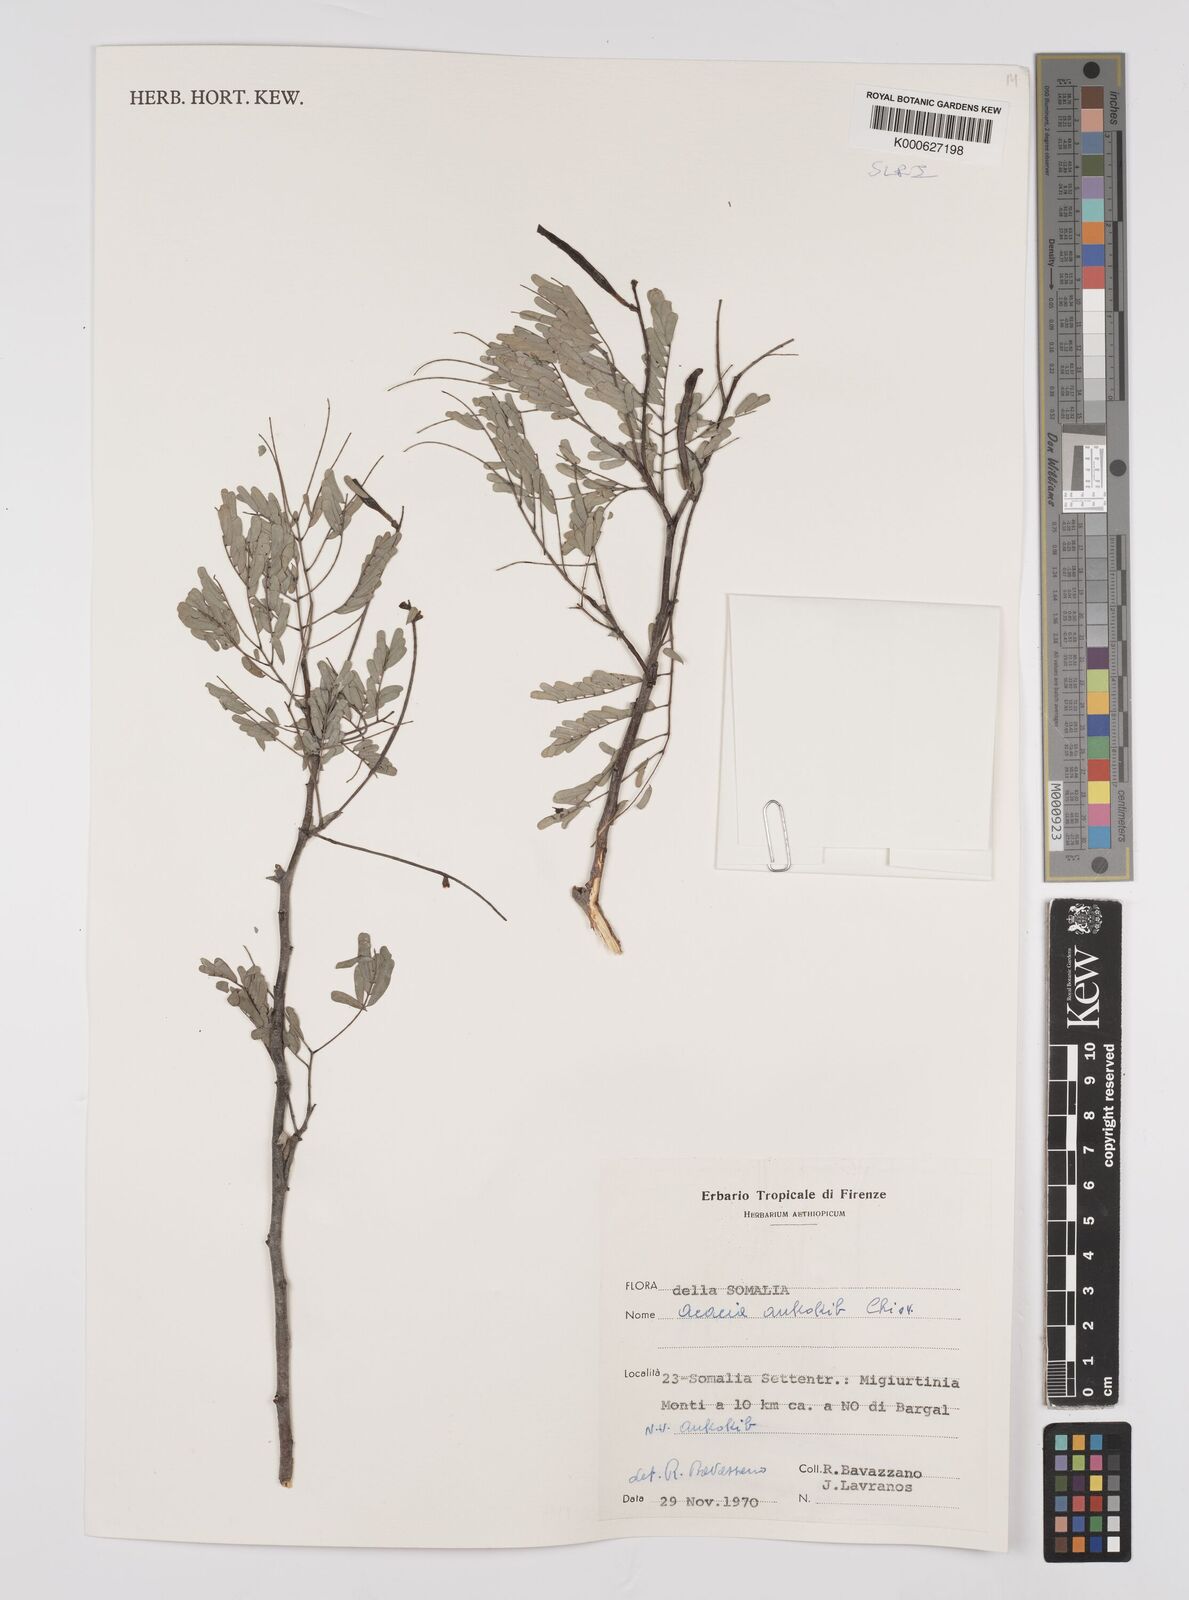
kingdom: Plantae
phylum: Tracheophyta
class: Magnoliopsida
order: Fabales
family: Fabaceae
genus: Senegalia
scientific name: Senegalia ankokib
